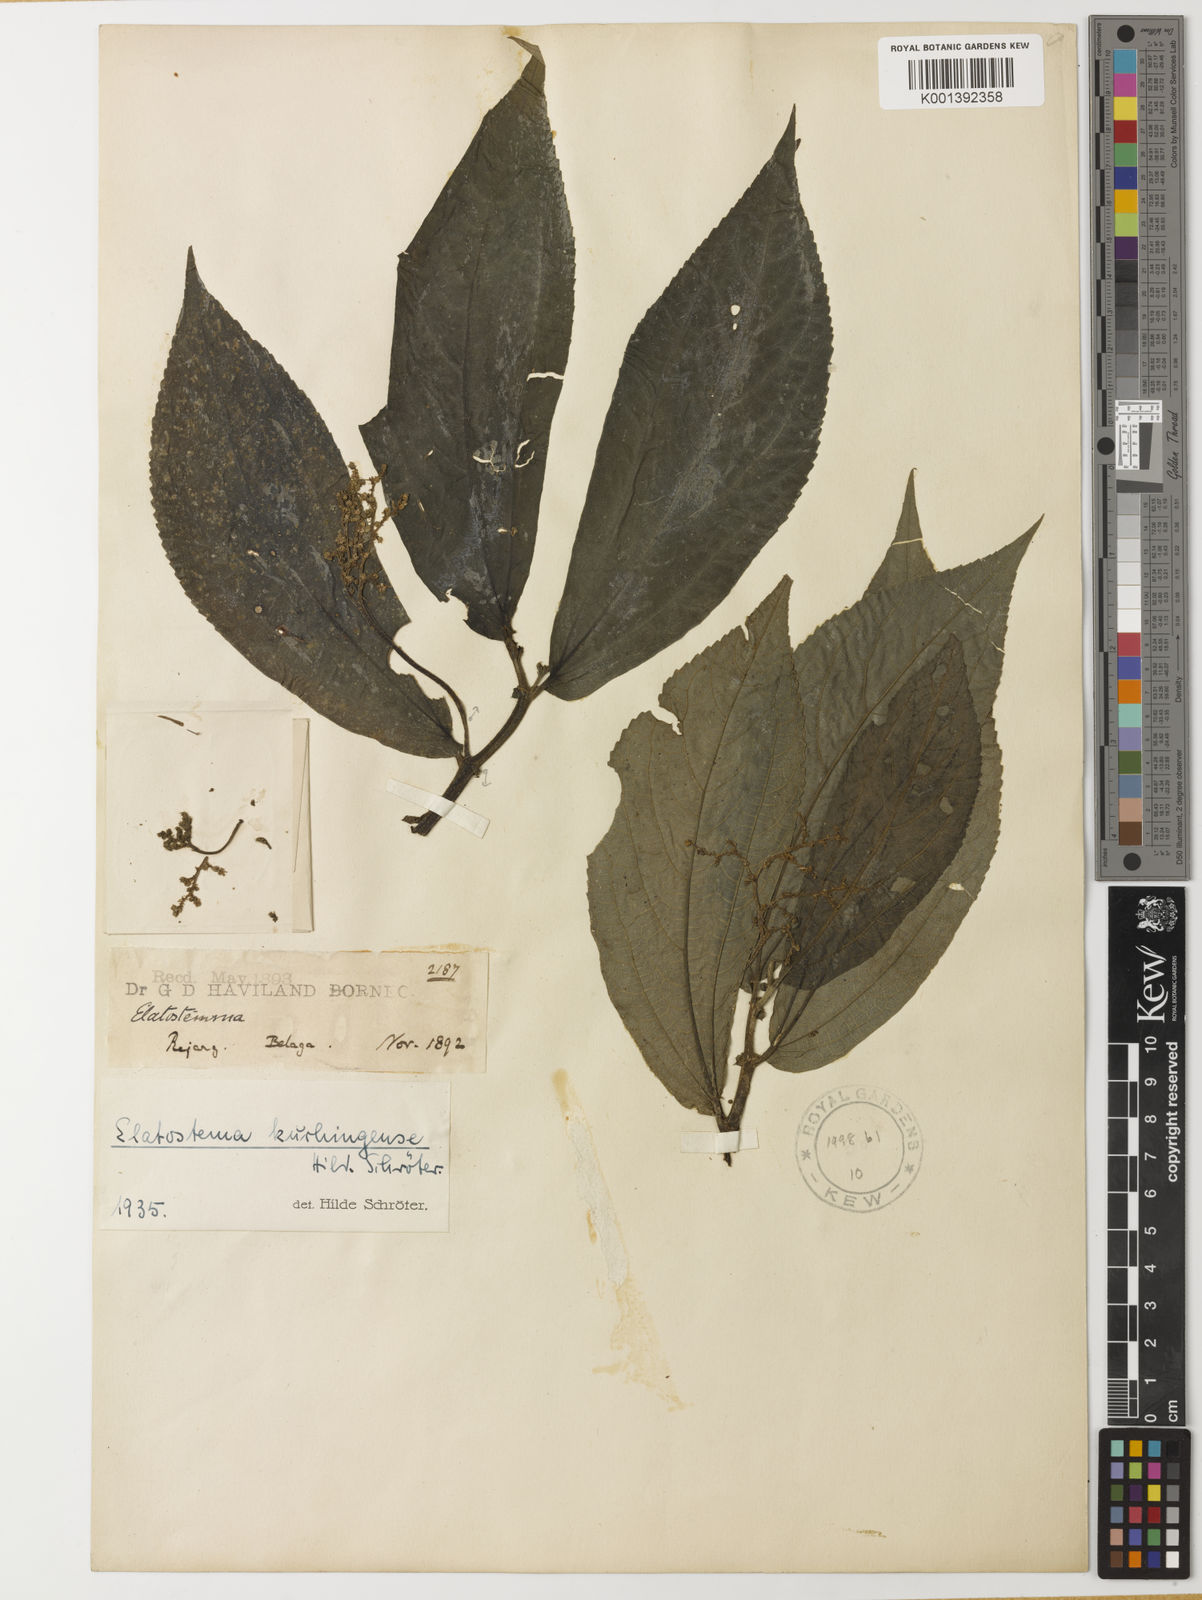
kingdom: Plantae
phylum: Tracheophyta
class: Magnoliopsida
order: Rosales
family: Urticaceae
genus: Elatostema
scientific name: Elatostema kuchingense
